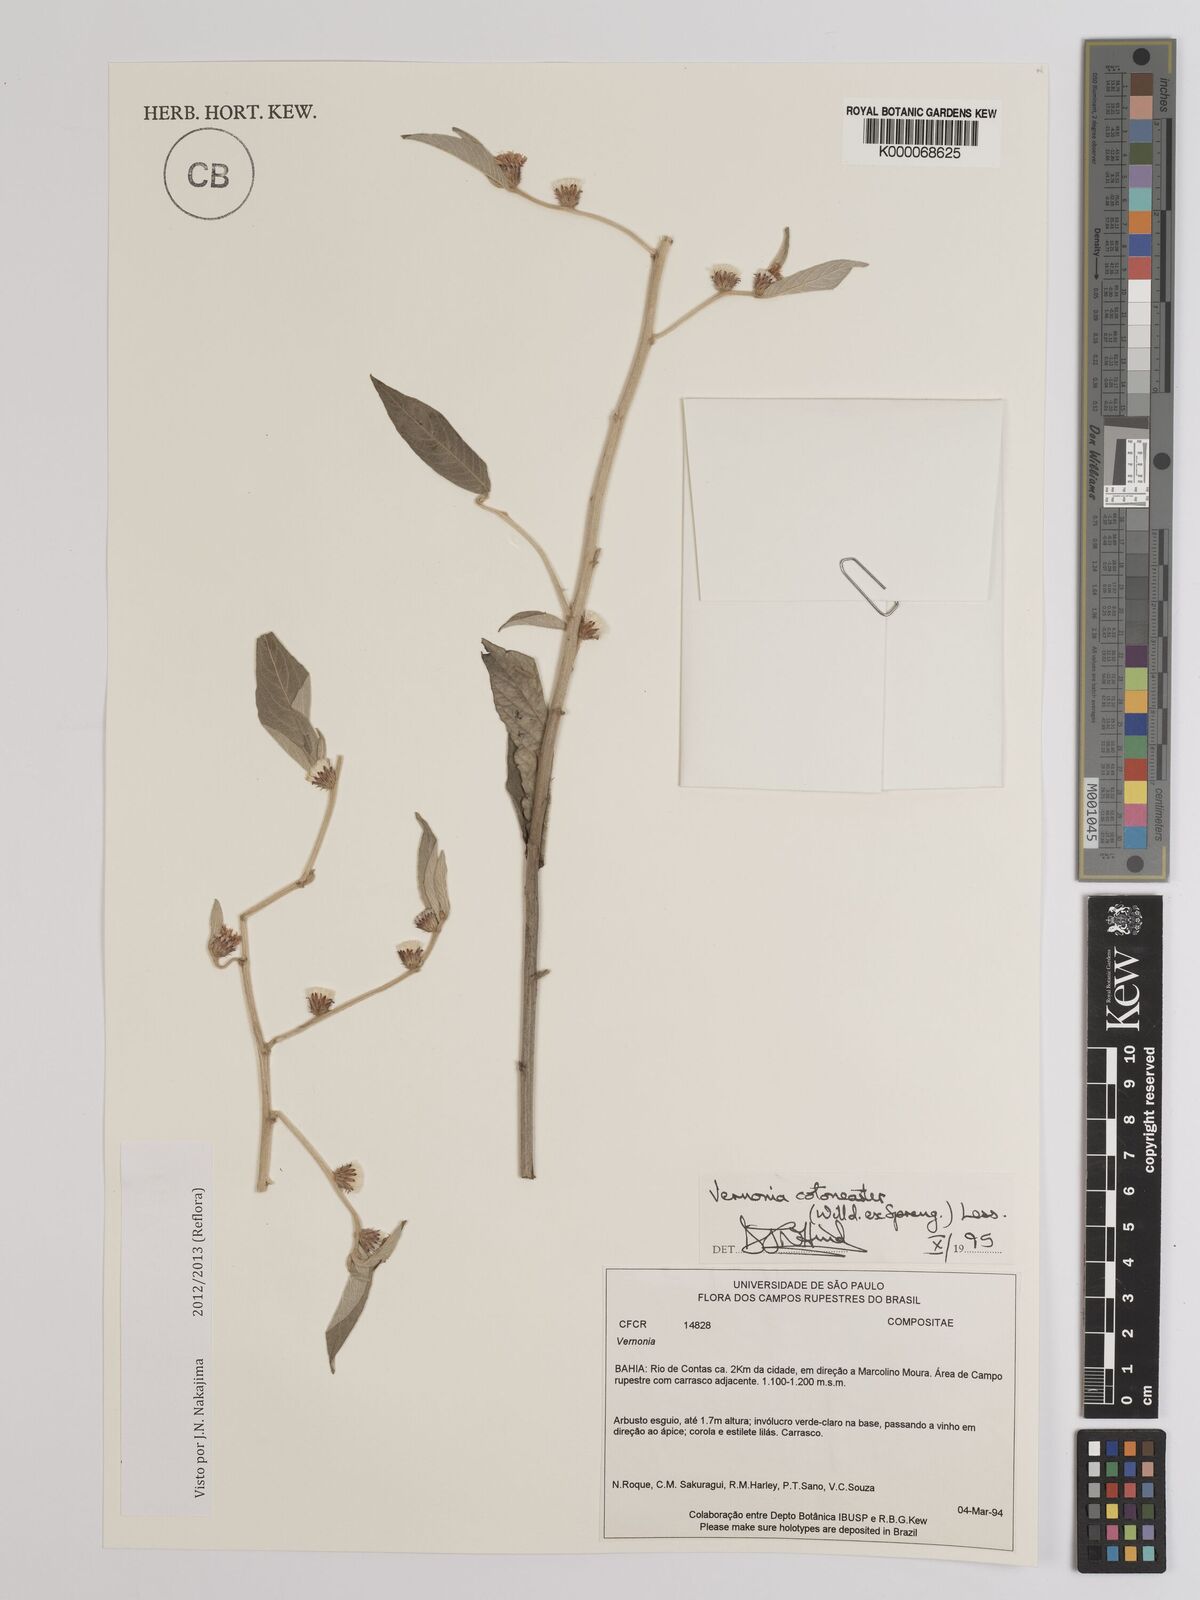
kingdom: Plantae
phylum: Tracheophyta
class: Magnoliopsida
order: Asterales
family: Asteraceae
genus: Lepidaploa
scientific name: Lepidaploa cotoneaster
